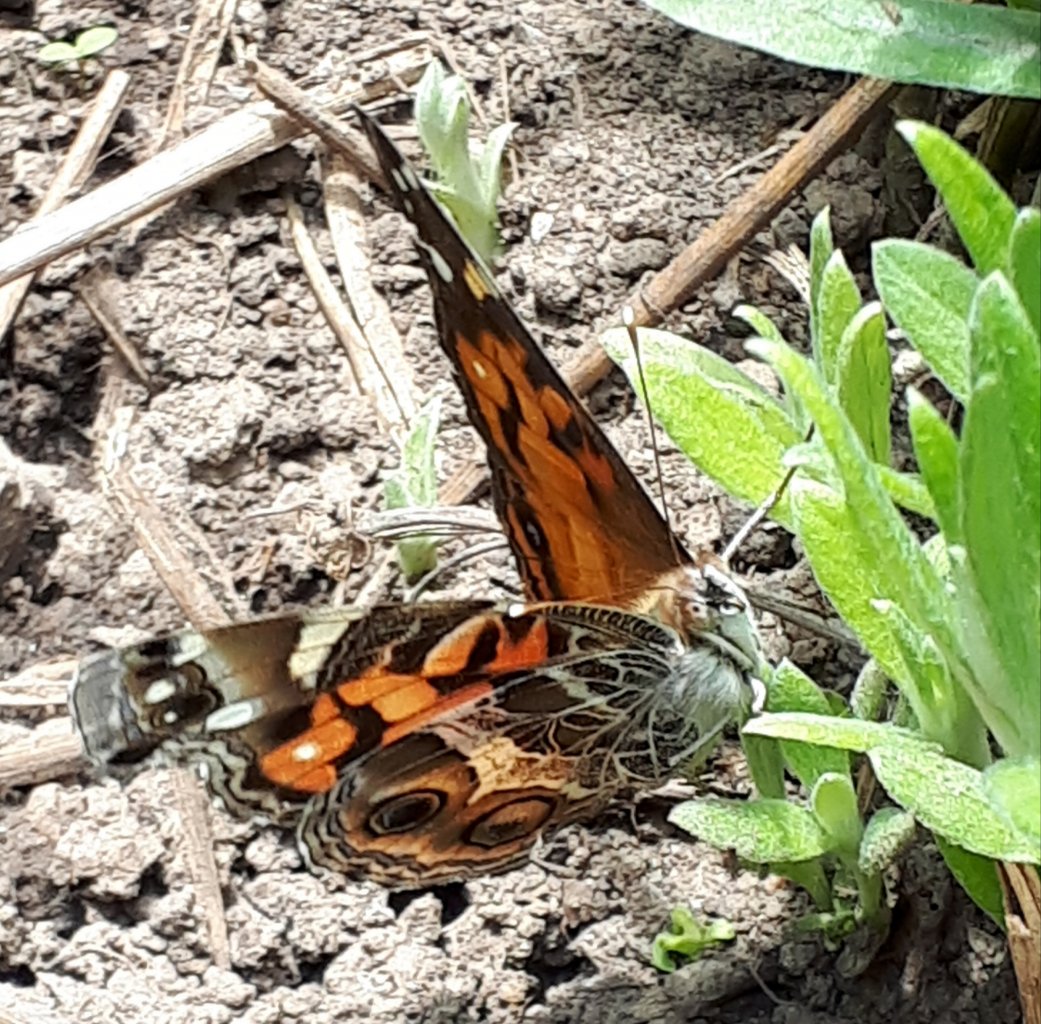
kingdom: Animalia
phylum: Arthropoda
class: Insecta
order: Lepidoptera
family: Nymphalidae
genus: Vanessa
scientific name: Vanessa virginiensis
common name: American Lady
